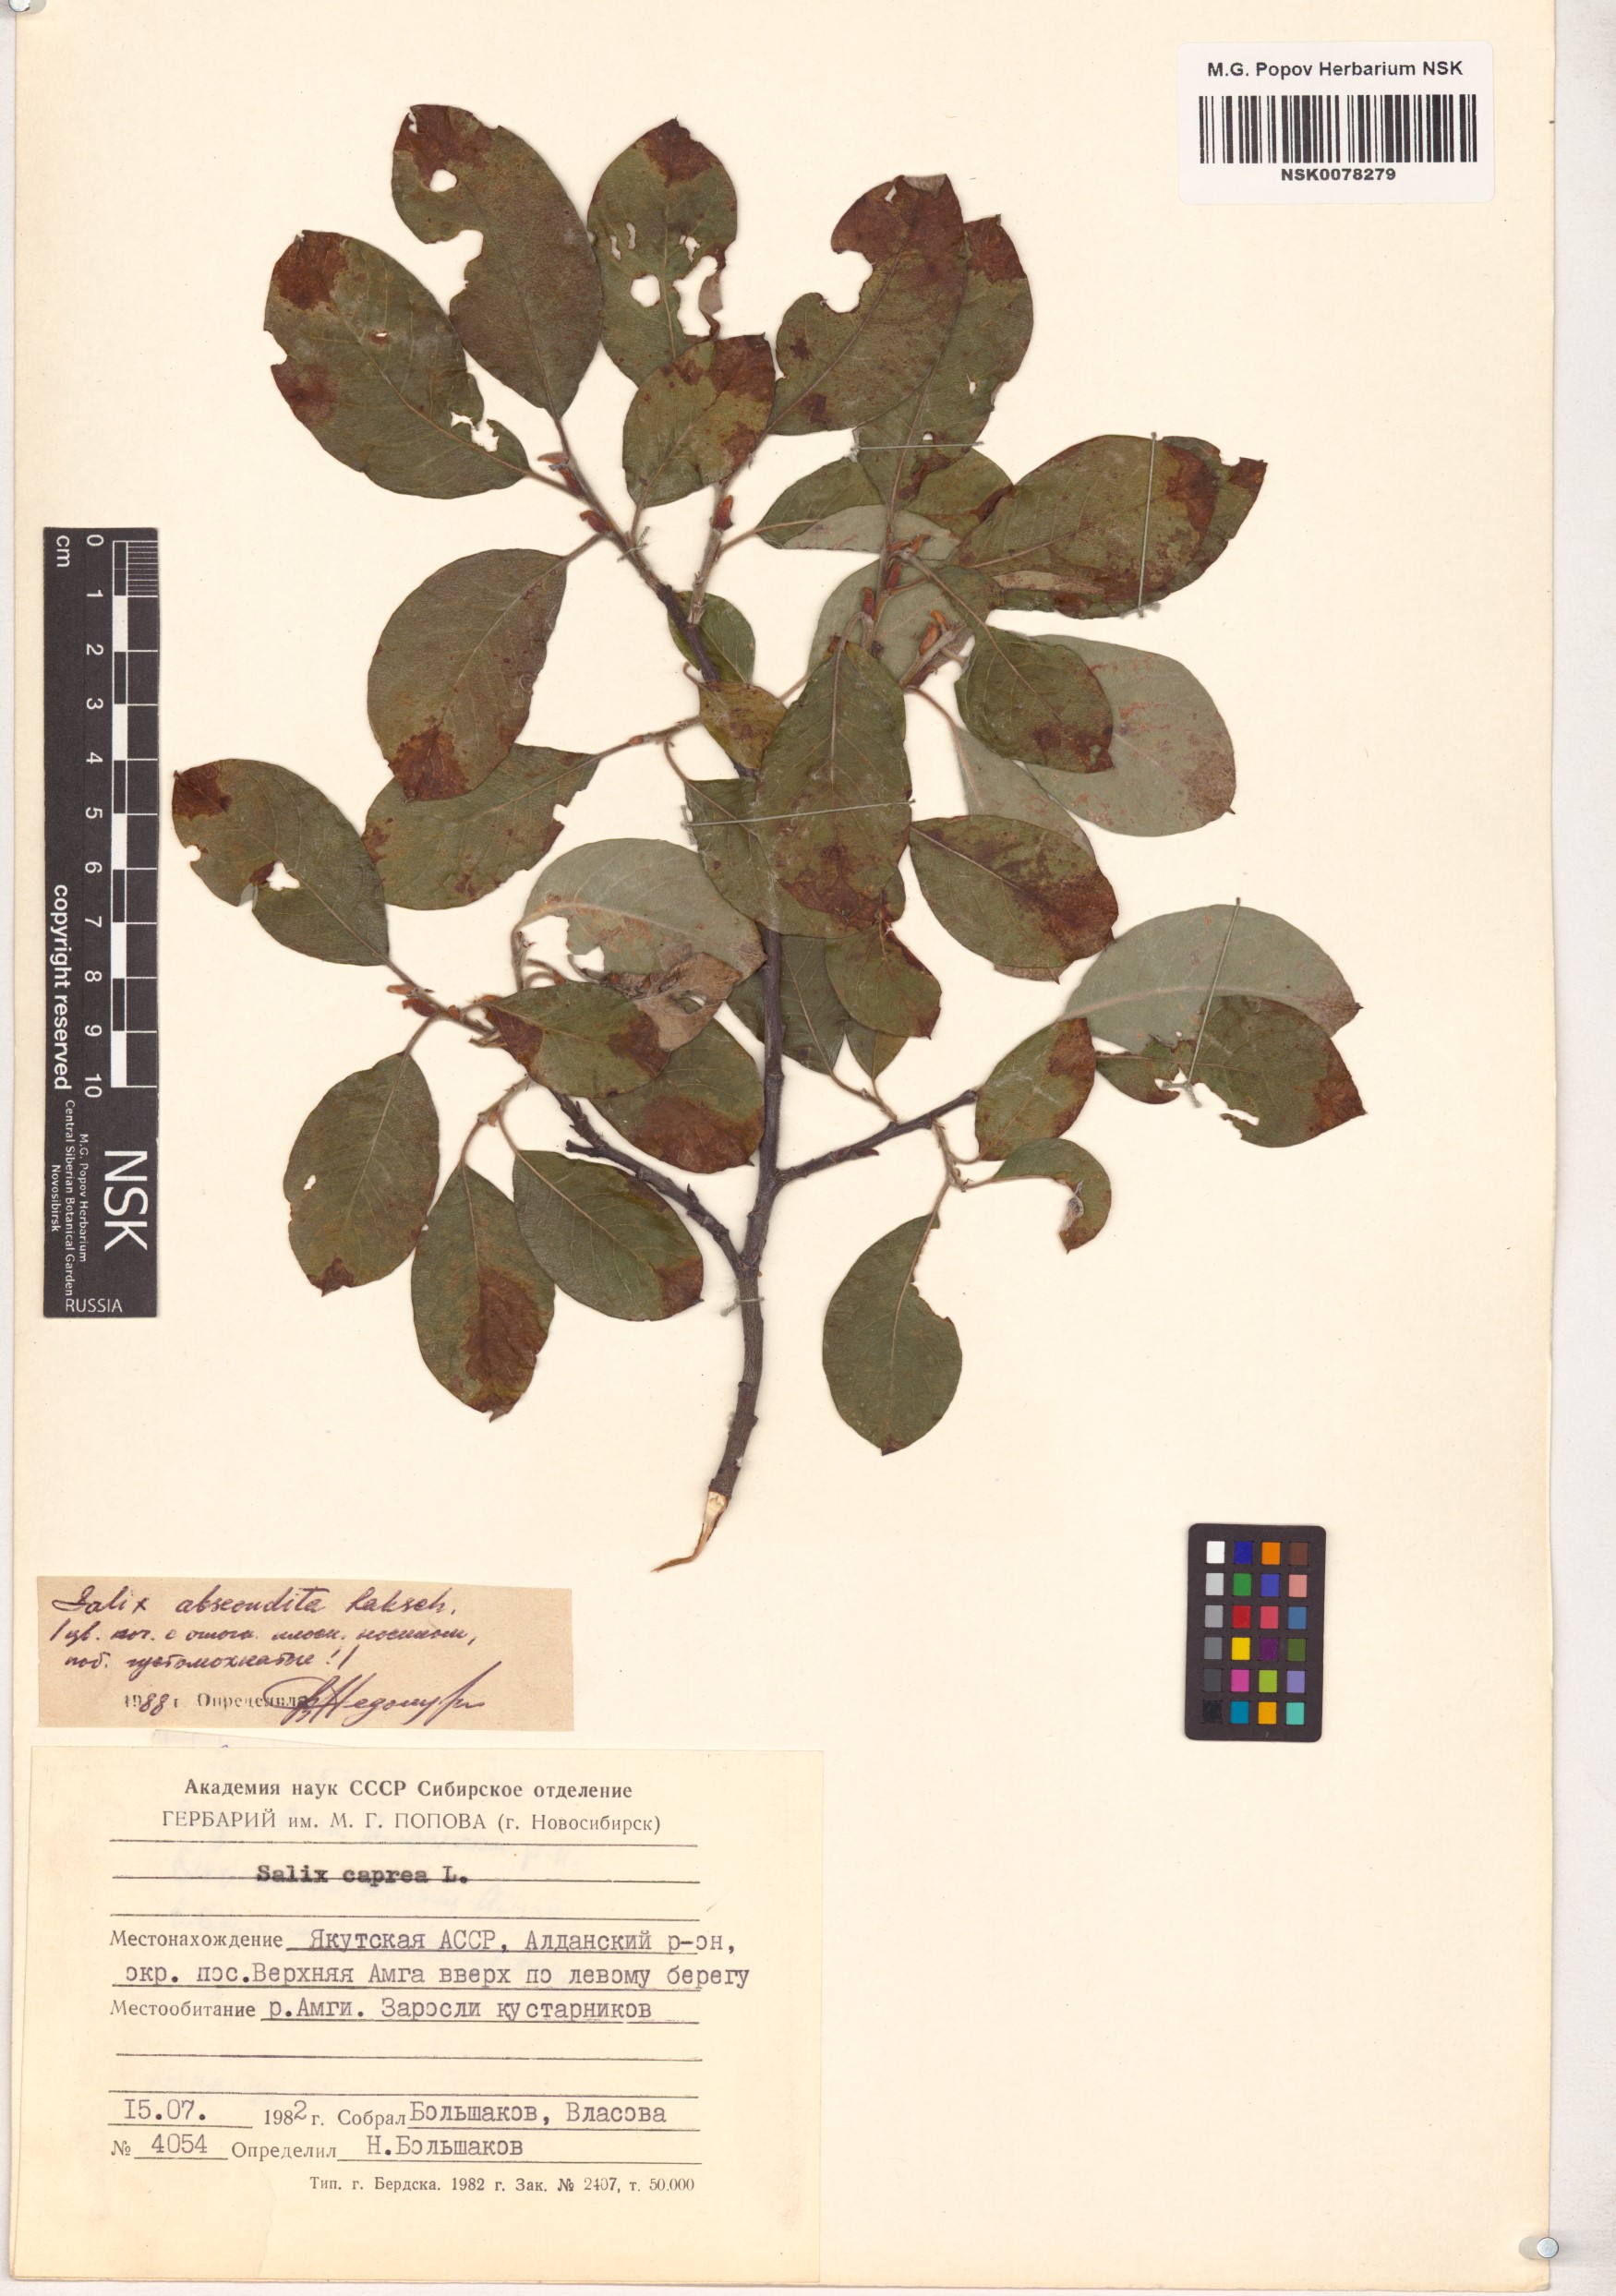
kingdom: Plantae
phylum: Tracheophyta
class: Magnoliopsida
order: Malpighiales
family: Salicaceae
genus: Salix
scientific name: Salix abscondita
